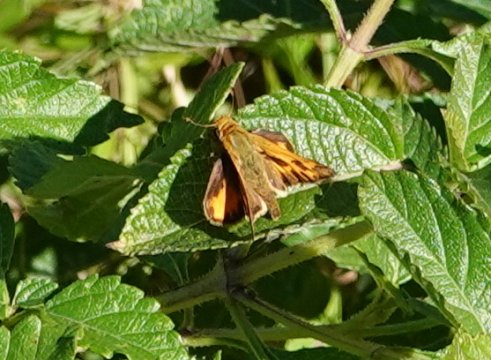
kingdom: Animalia
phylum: Arthropoda
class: Insecta
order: Lepidoptera
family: Hesperiidae
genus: Hylephila
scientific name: Hylephila phyleus
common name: Fiery Skipper
